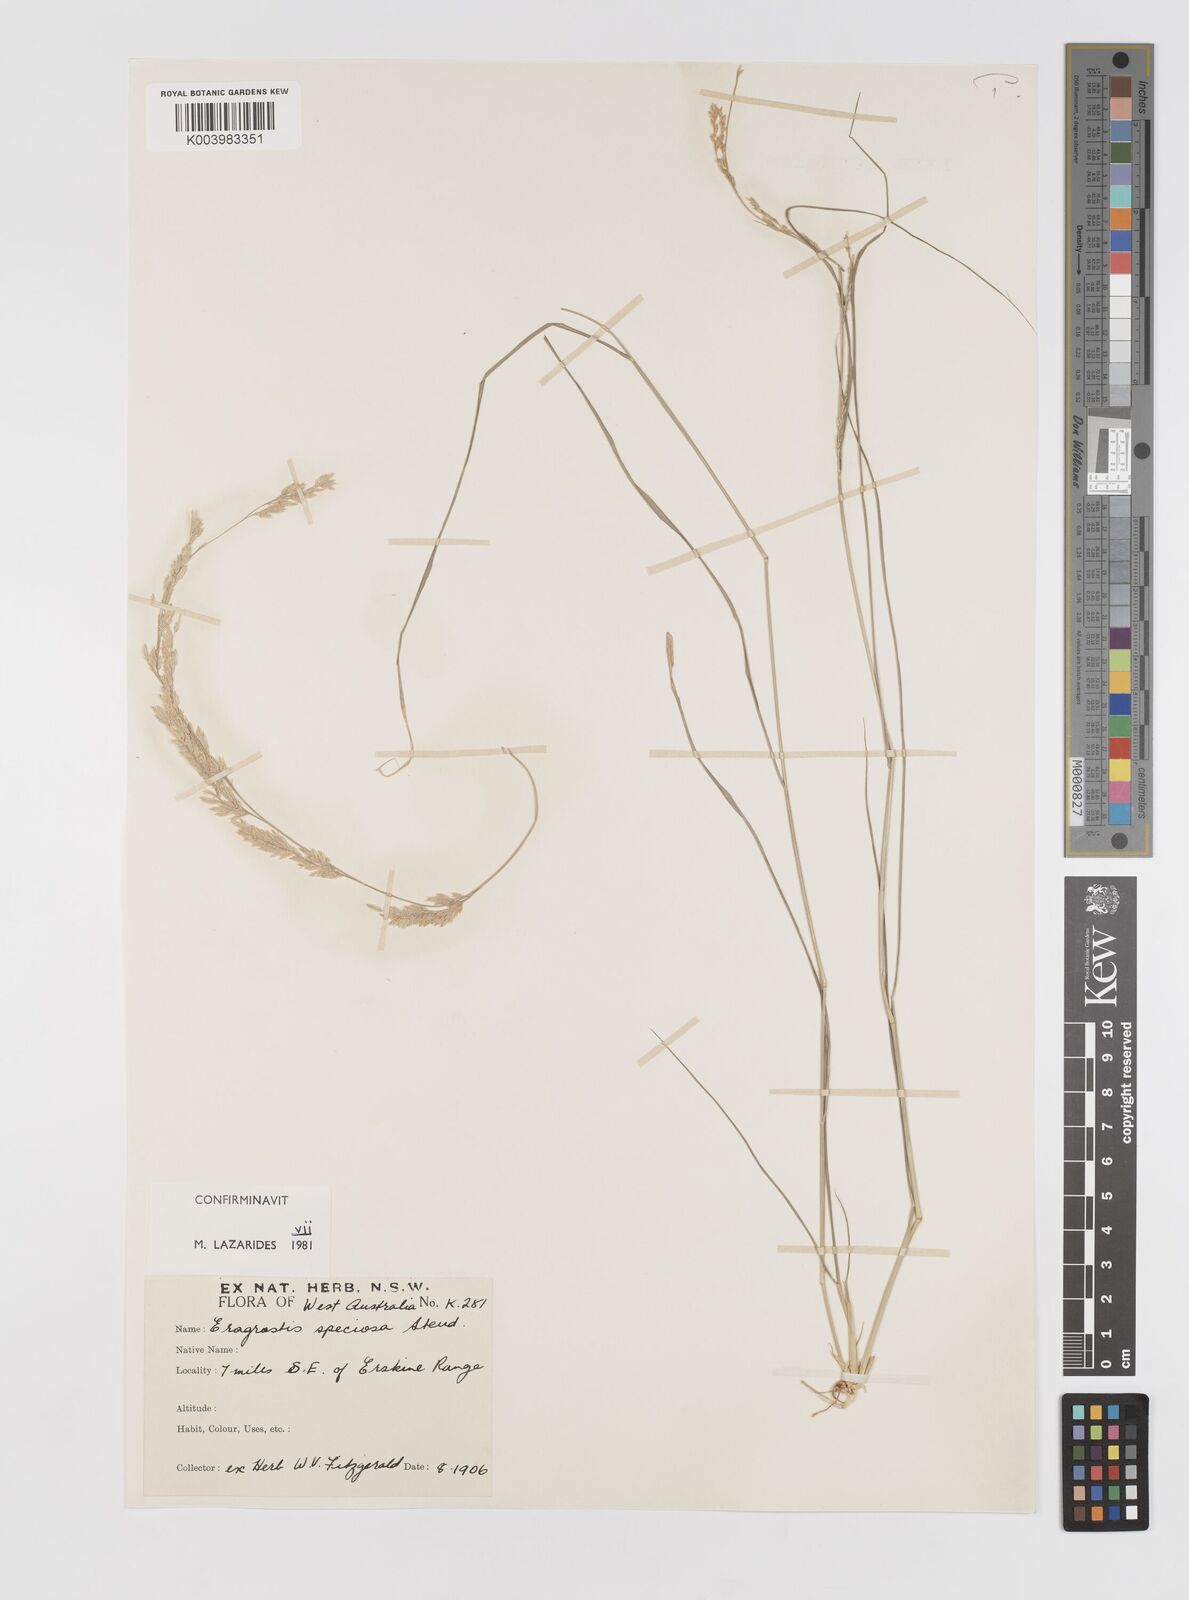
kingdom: Plantae
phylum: Tracheophyta
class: Liliopsida
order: Poales
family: Poaceae
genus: Eragrostis
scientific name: Eragrostis speciosa
